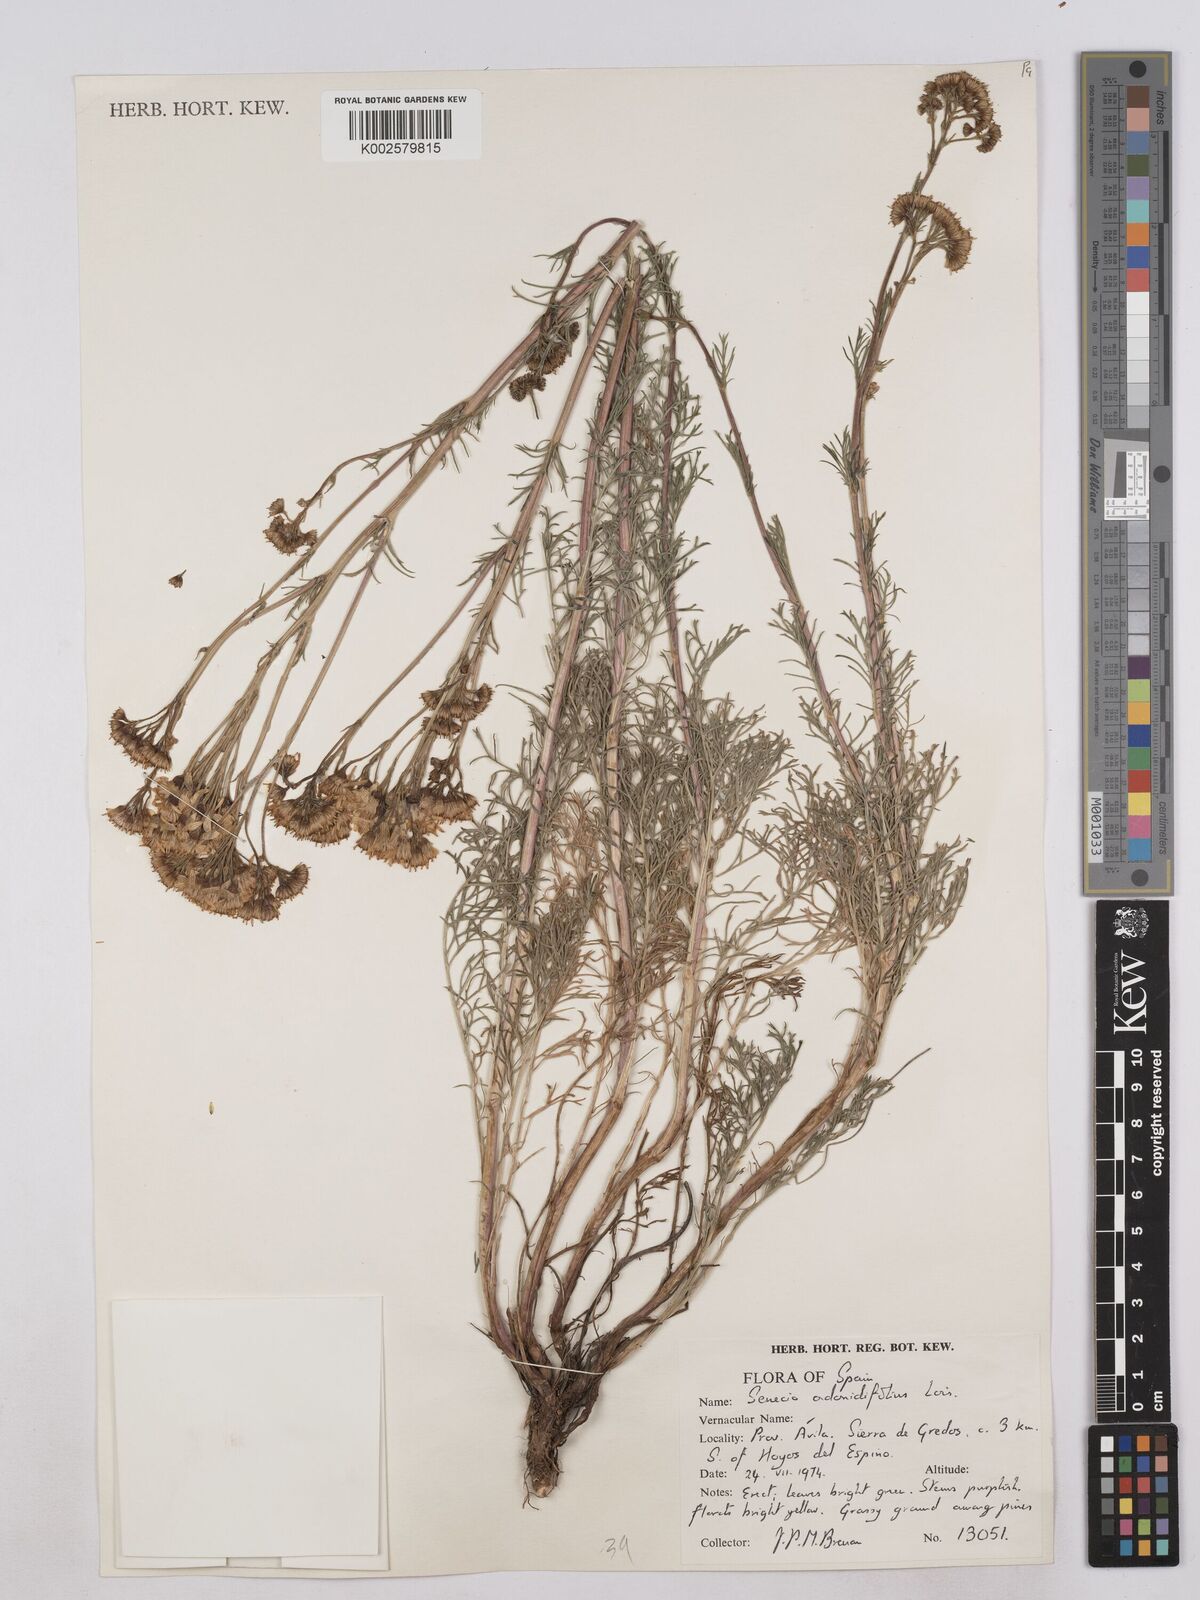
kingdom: Plantae
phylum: Tracheophyta
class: Magnoliopsida
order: Asterales
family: Asteraceae
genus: Jacobaea
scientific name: Jacobaea adonidifolia
